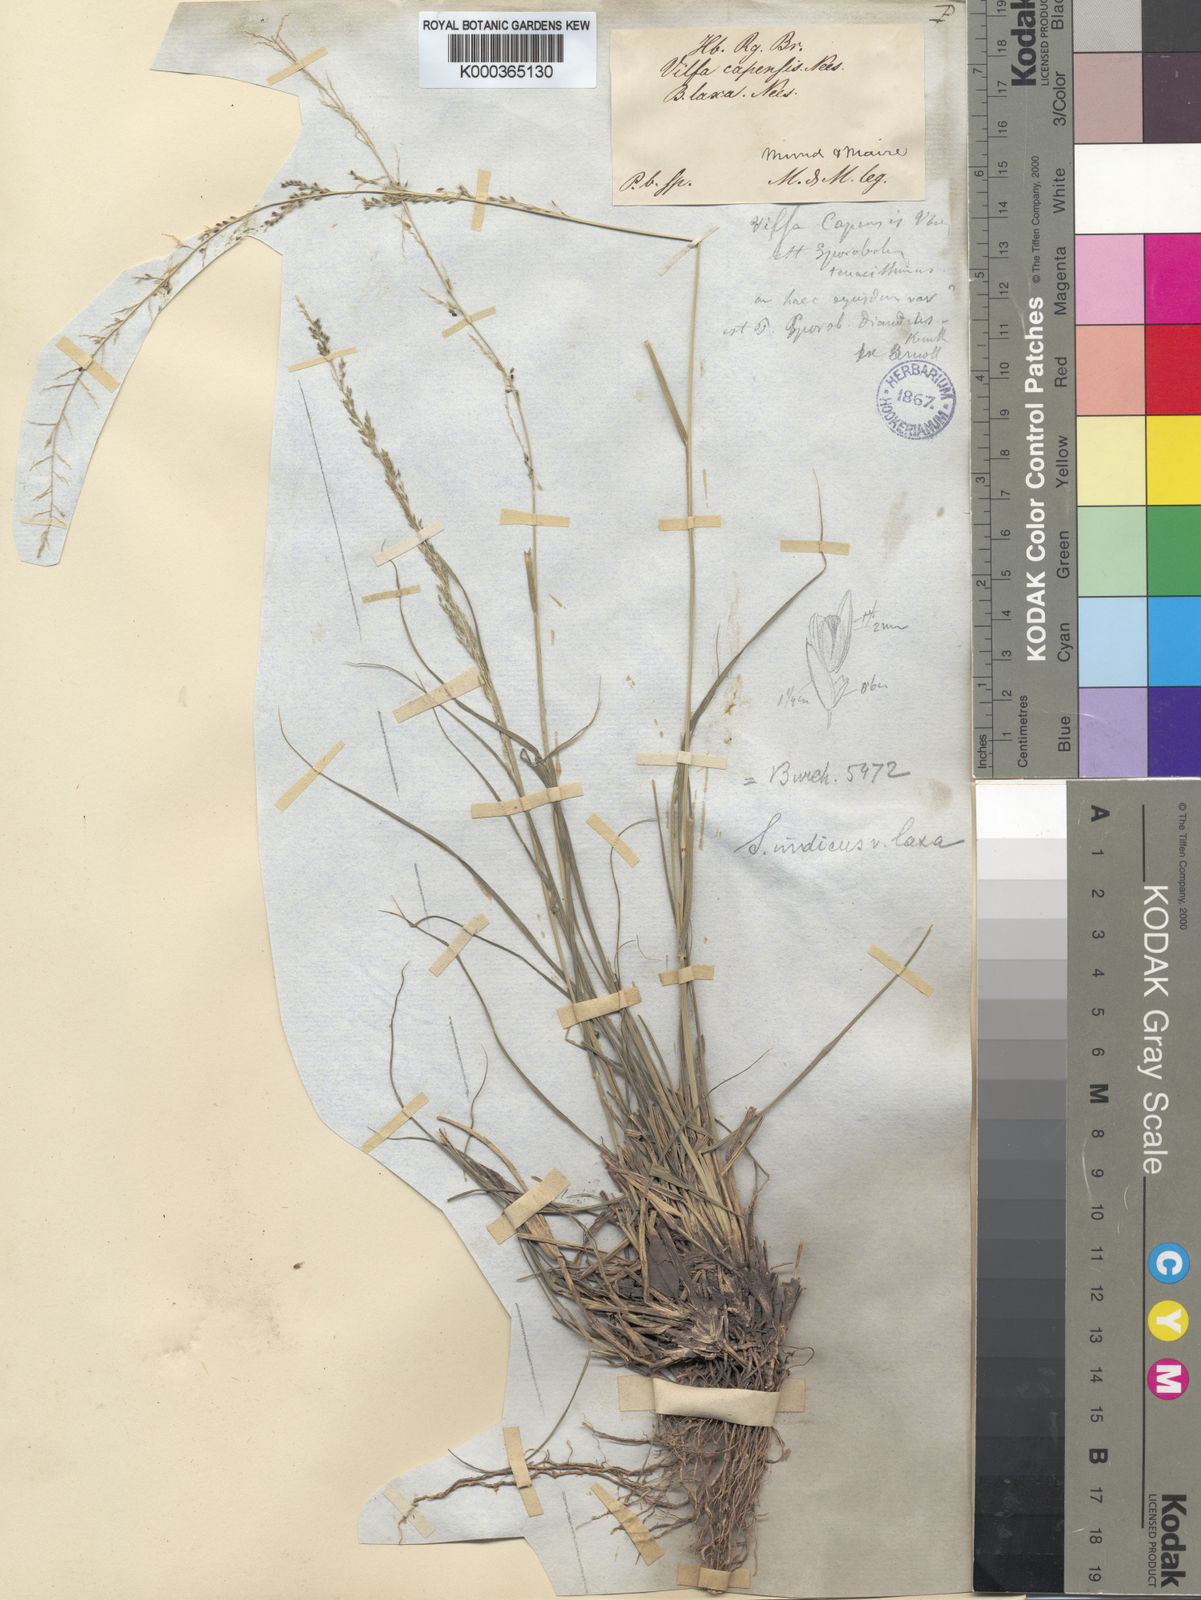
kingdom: Plantae
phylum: Tracheophyta
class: Liliopsida
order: Poales
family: Poaceae
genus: Sporobolus
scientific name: Sporobolus natalensis
